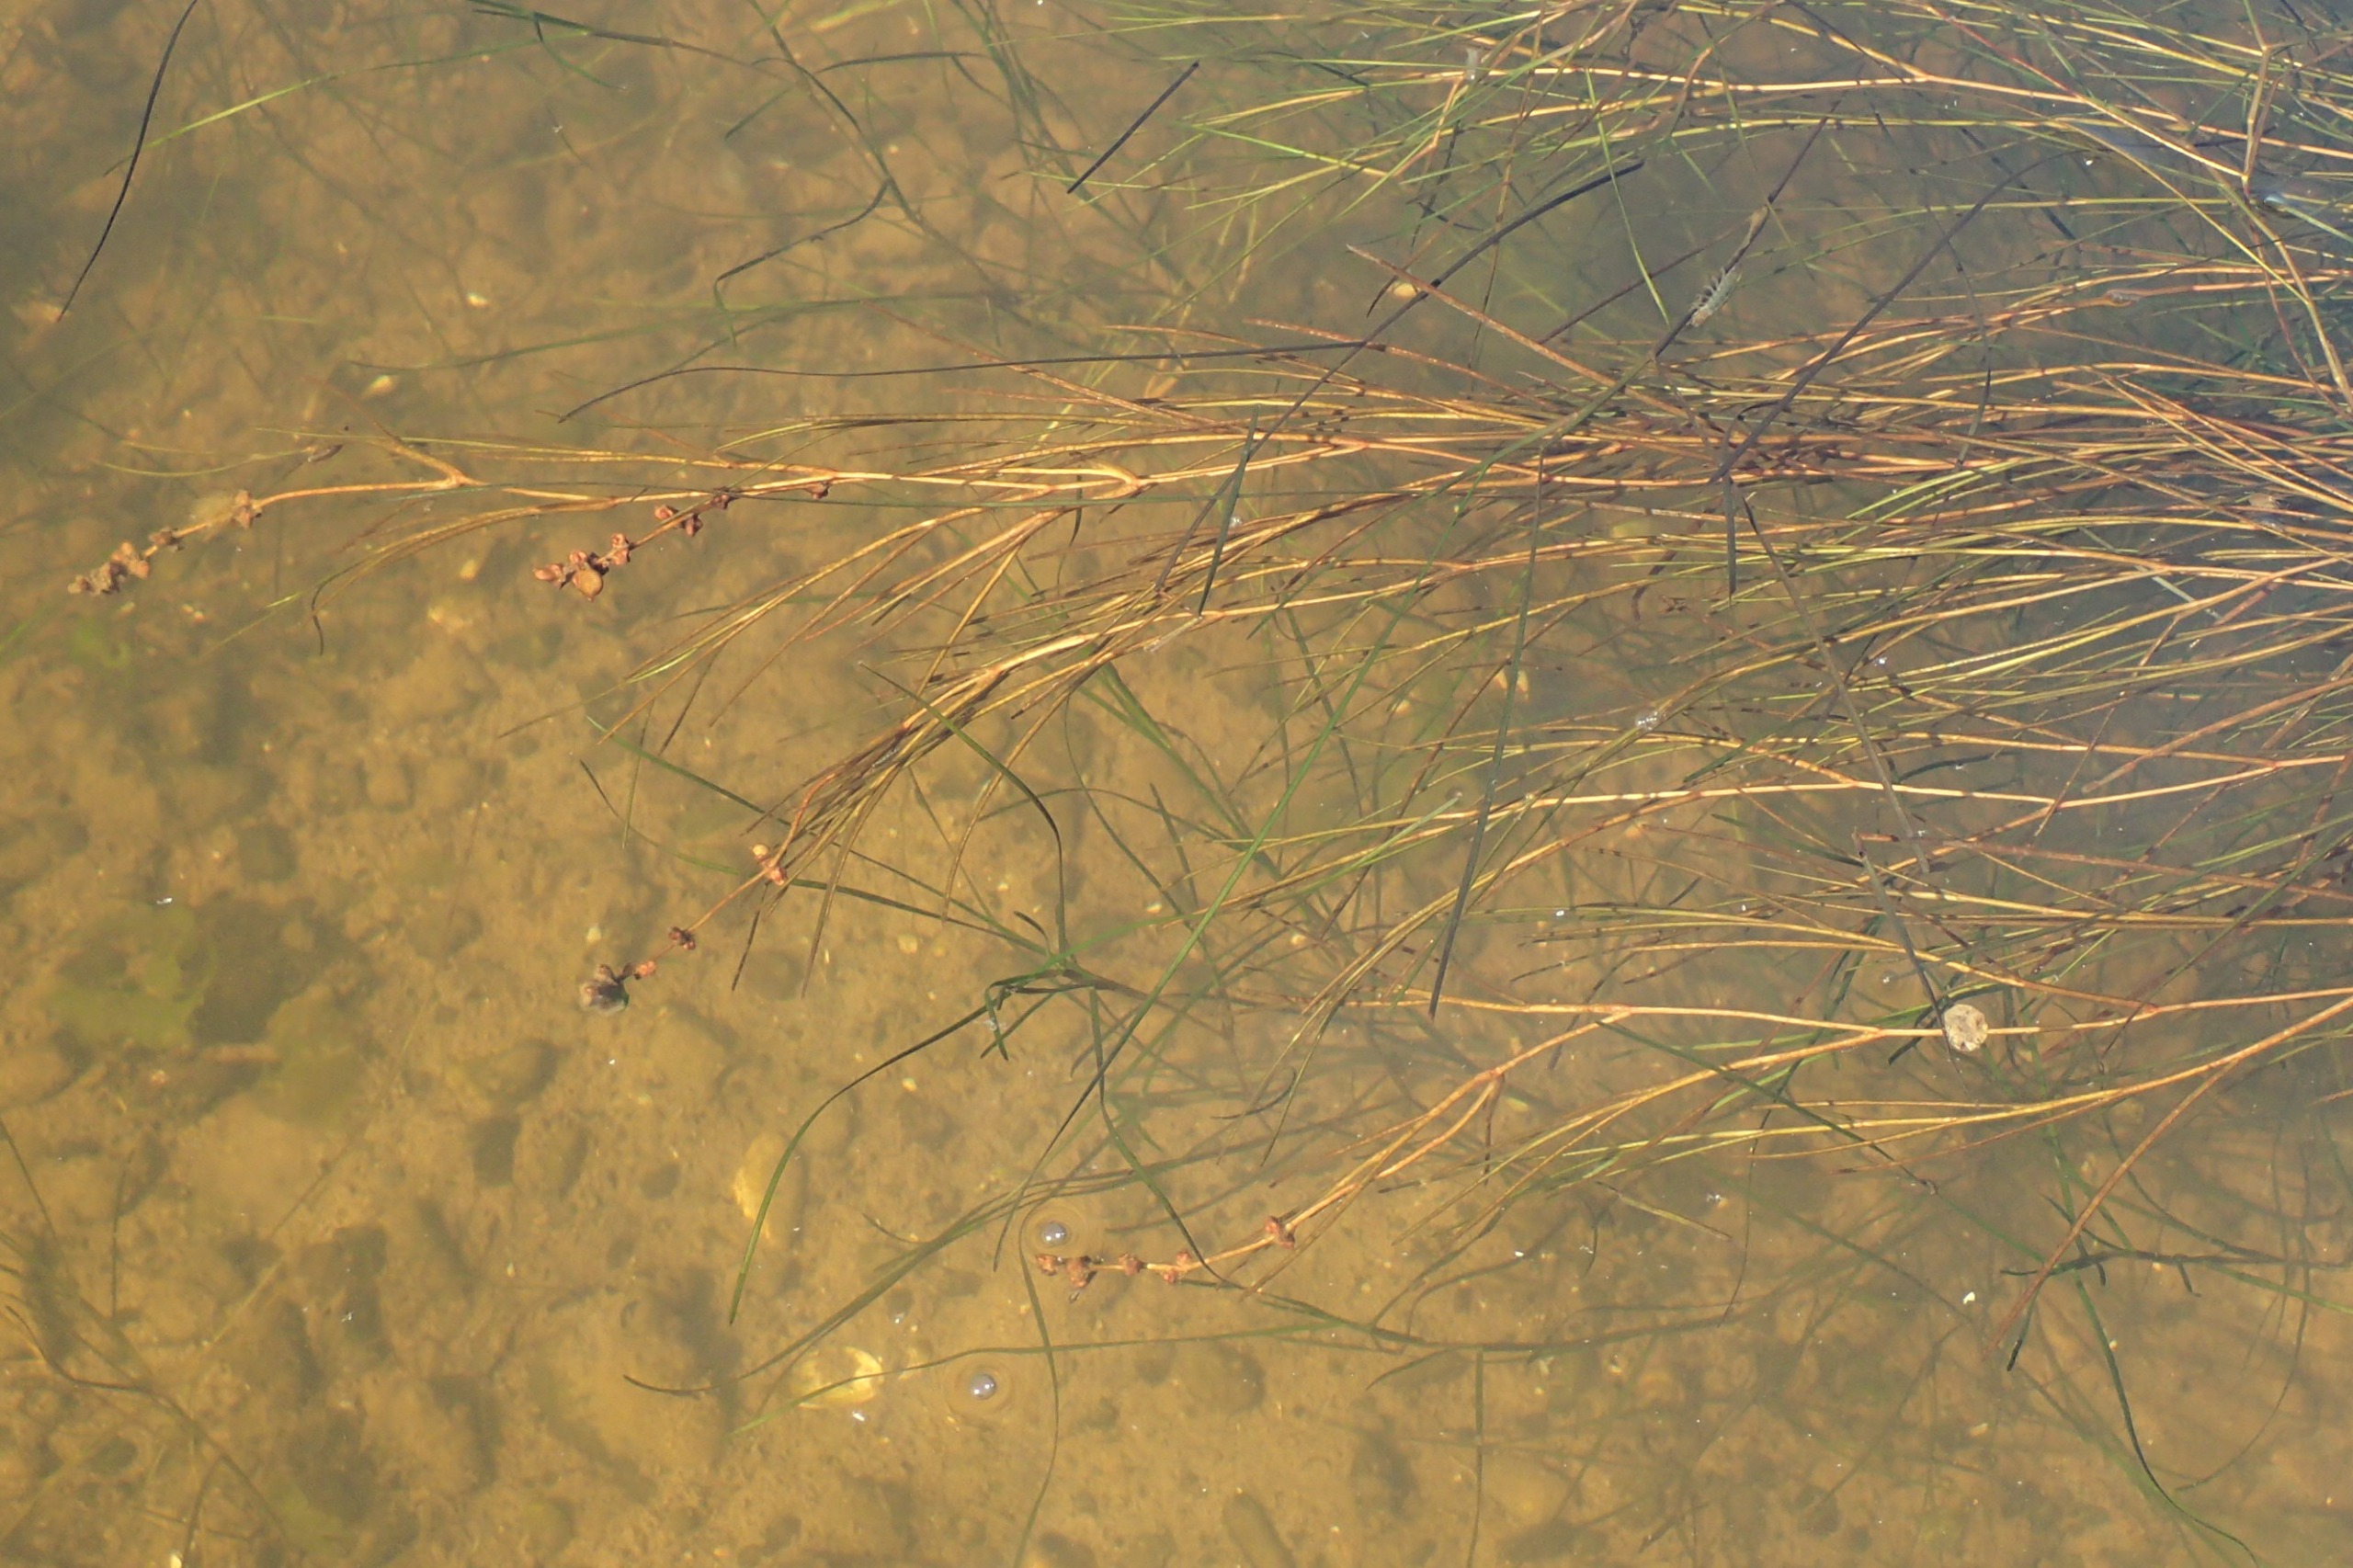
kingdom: Plantae
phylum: Tracheophyta
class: Liliopsida
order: Alismatales
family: Potamogetonaceae
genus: Stuckenia
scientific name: Stuckenia pectinata
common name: Børstebladet vandaks
